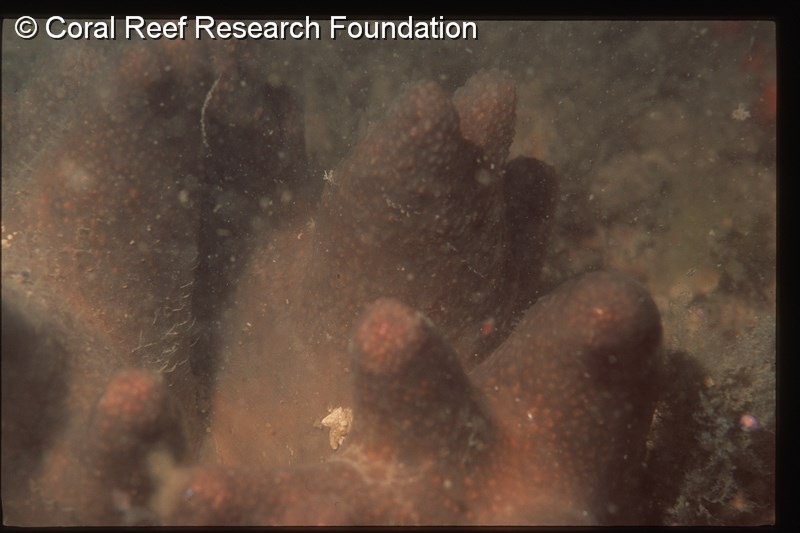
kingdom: Animalia
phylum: Chordata
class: Ascidiacea
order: Aplousobranchia
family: Pseudodistomidae
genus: Pseudodistoma
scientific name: Pseudodistoma
